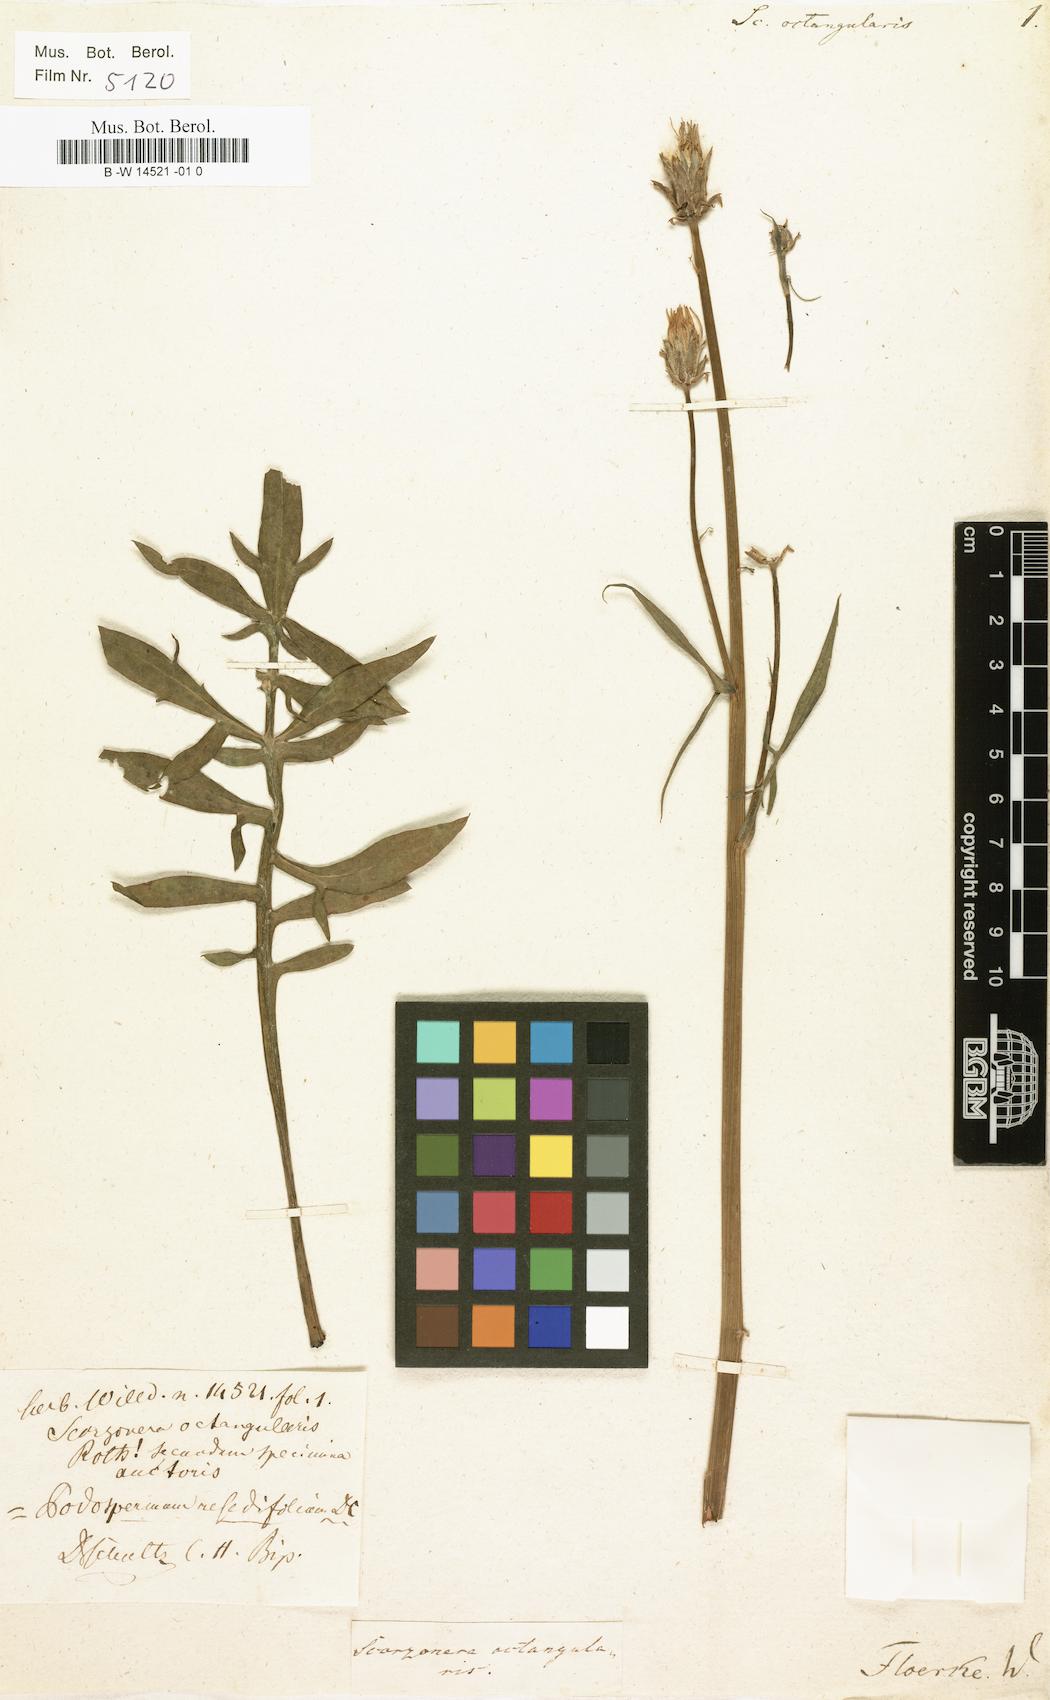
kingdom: Plantae
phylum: Tracheophyta
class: Magnoliopsida
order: Asterales
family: Asteraceae
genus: Scorzonera
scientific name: Scorzonera
